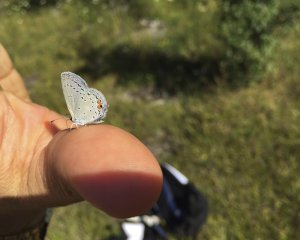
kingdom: Animalia
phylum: Arthropoda
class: Insecta
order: Lepidoptera
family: Lycaenidae
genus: Elkalyce
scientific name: Elkalyce comyntas
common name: Eastern Tailed-Blue
